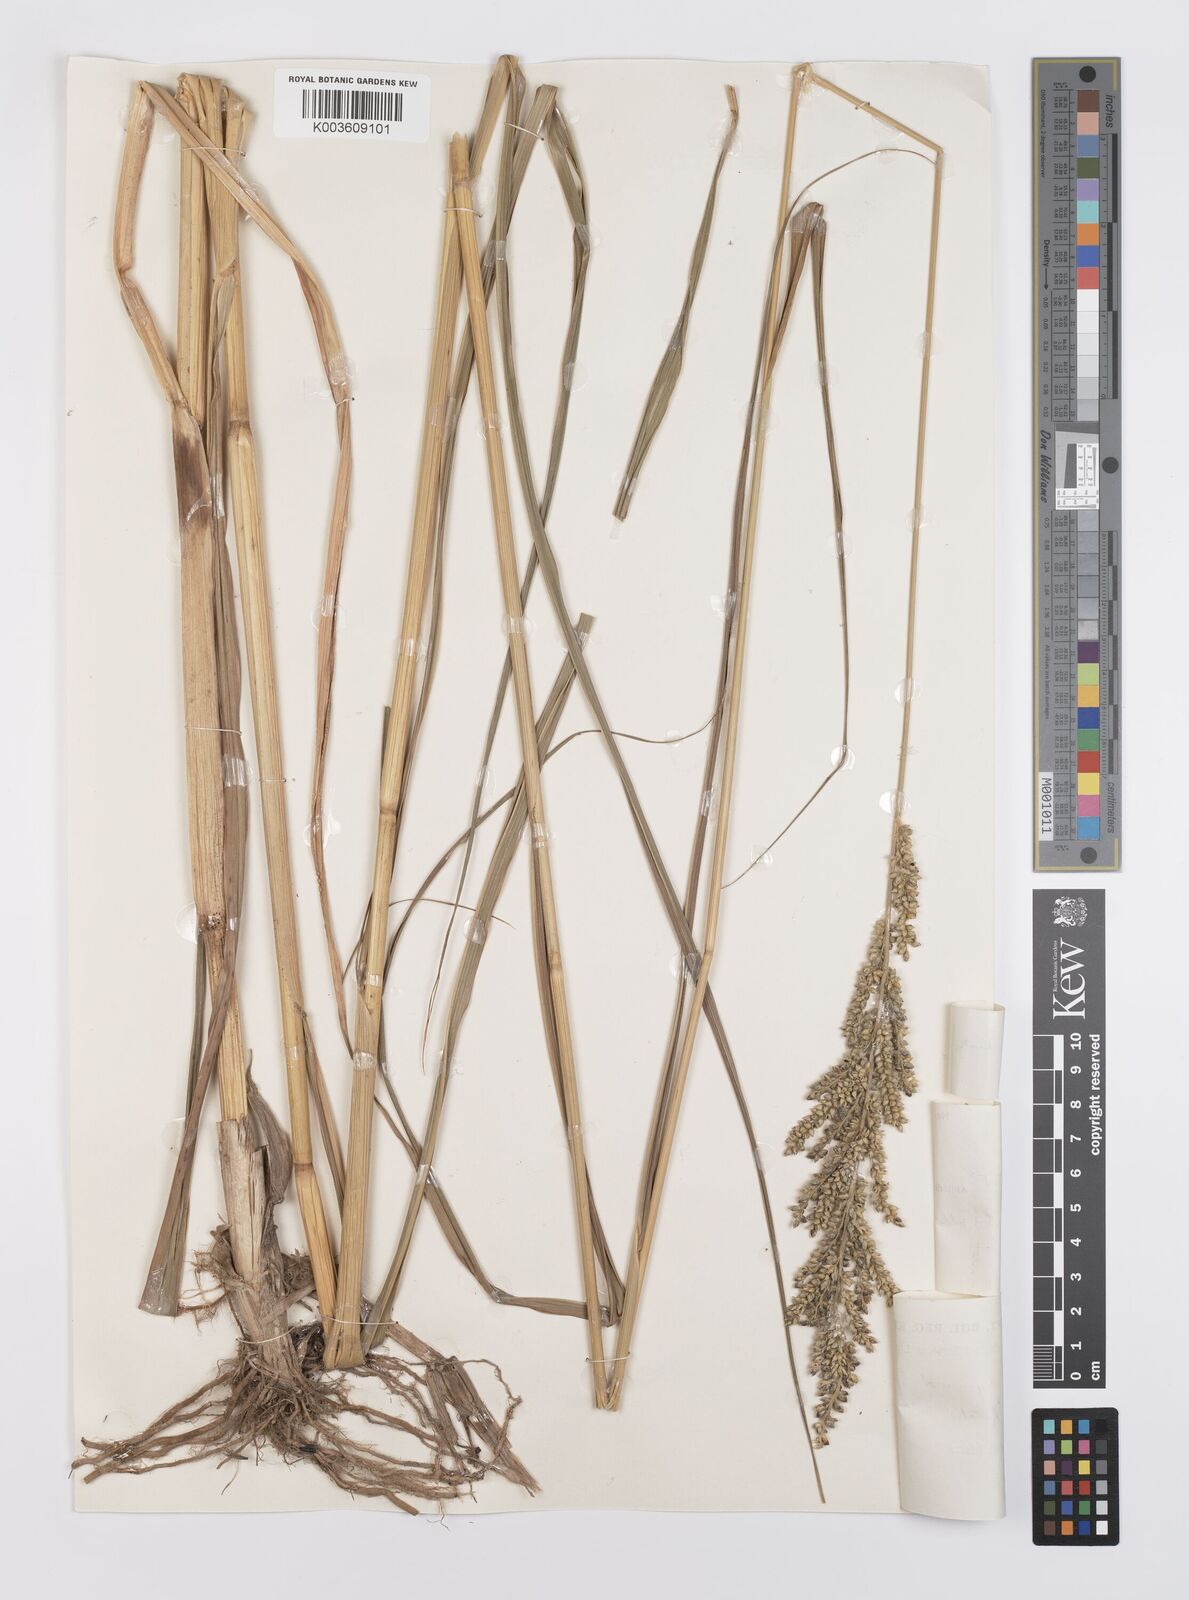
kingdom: Plantae
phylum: Tracheophyta
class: Liliopsida
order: Poales
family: Poaceae
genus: Echinochloa
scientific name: Echinochloa pyramidalis
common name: Antelope grass
